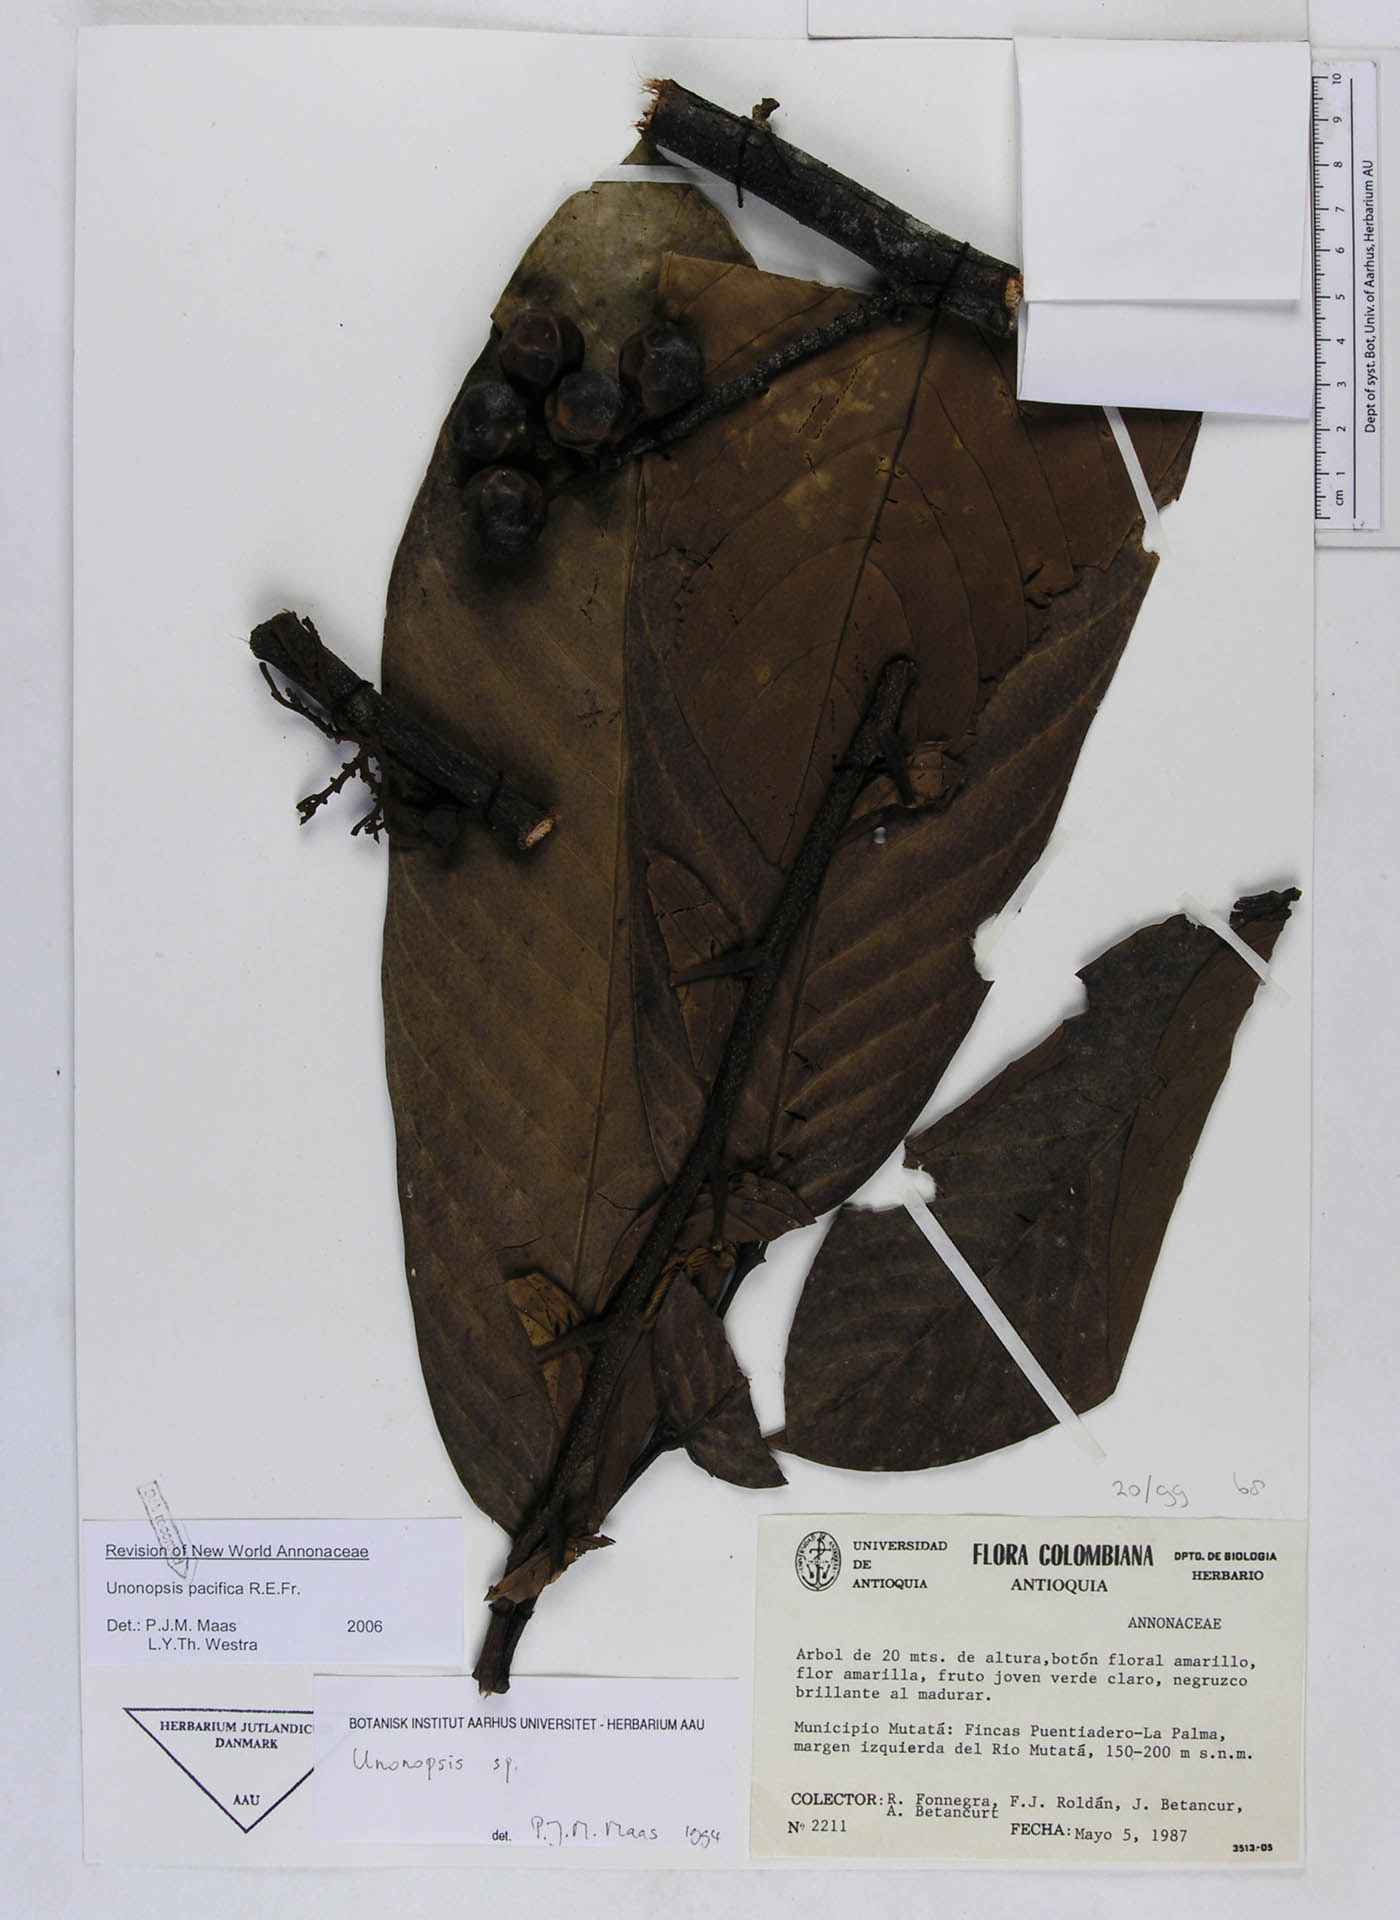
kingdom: Plantae
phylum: Tracheophyta
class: Magnoliopsida
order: Magnoliales
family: Annonaceae
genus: Unonopsis
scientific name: Unonopsis pacifica
